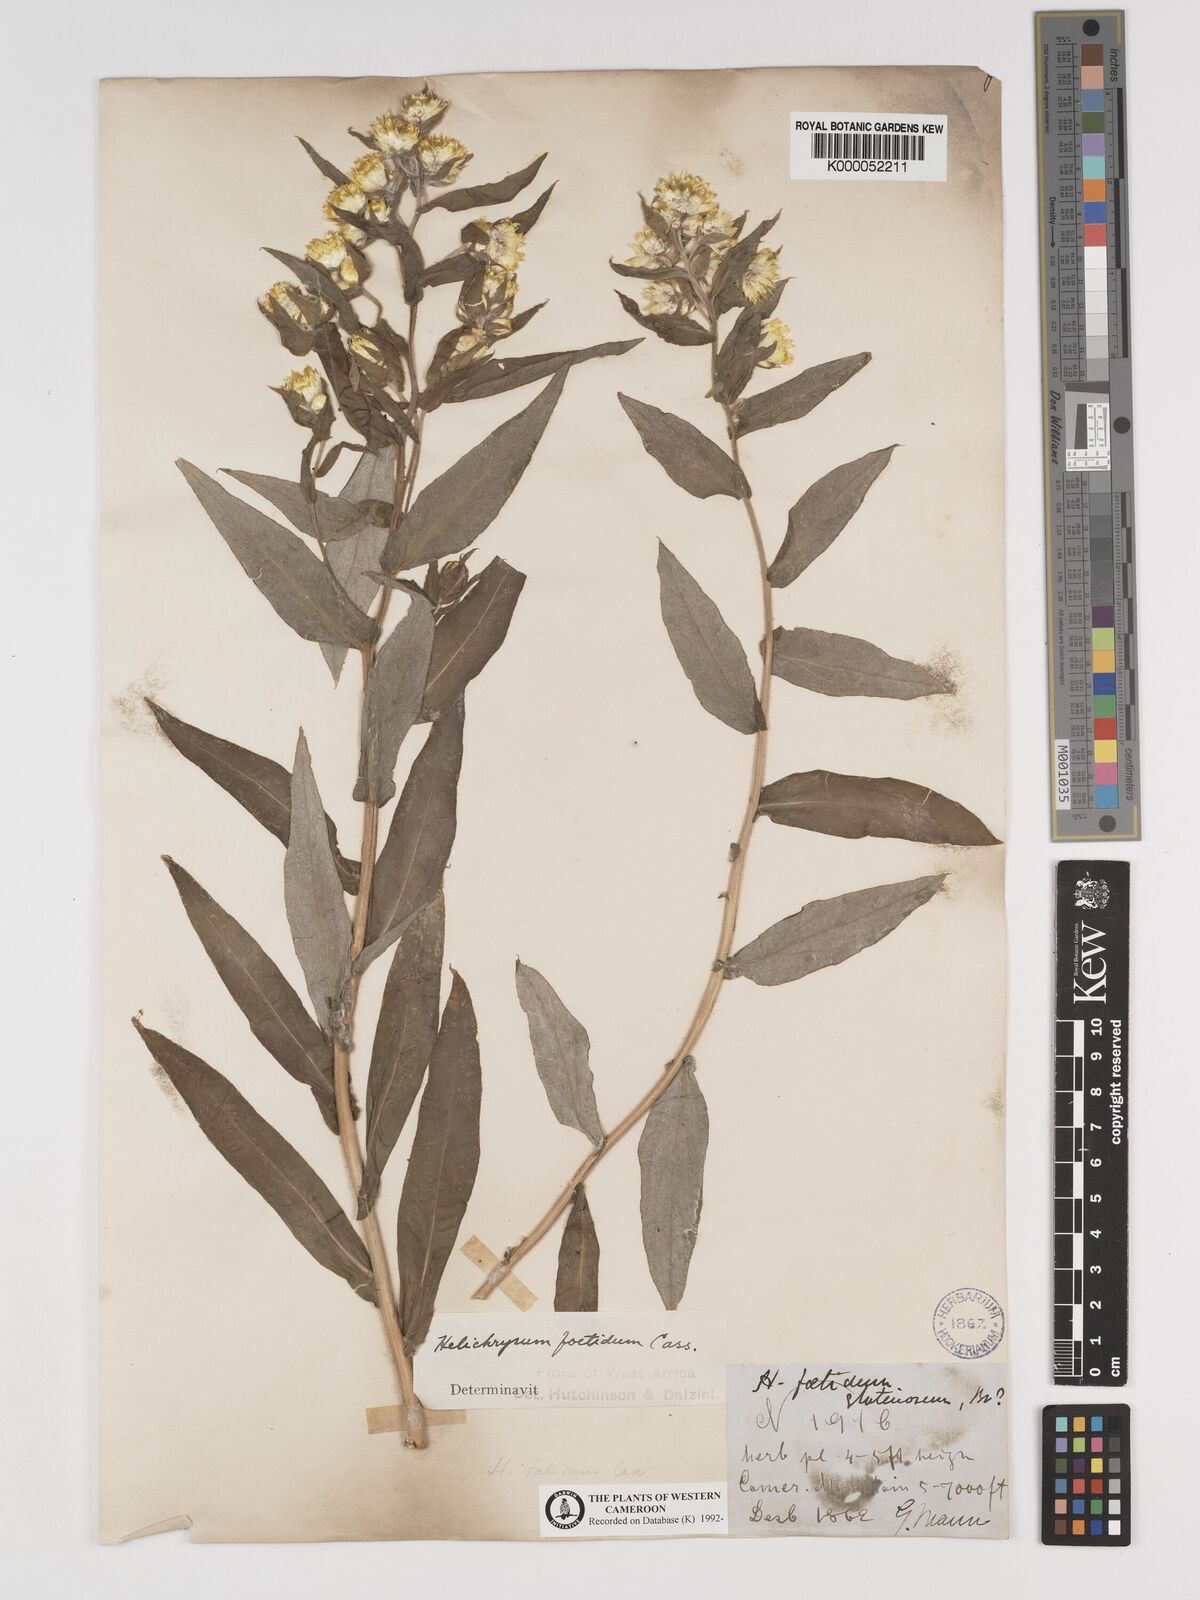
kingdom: Plantae
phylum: Tracheophyta
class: Magnoliopsida
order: Asterales
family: Asteraceae
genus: Helichrysum
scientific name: Helichrysum foetidum
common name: Stinking everlasting
